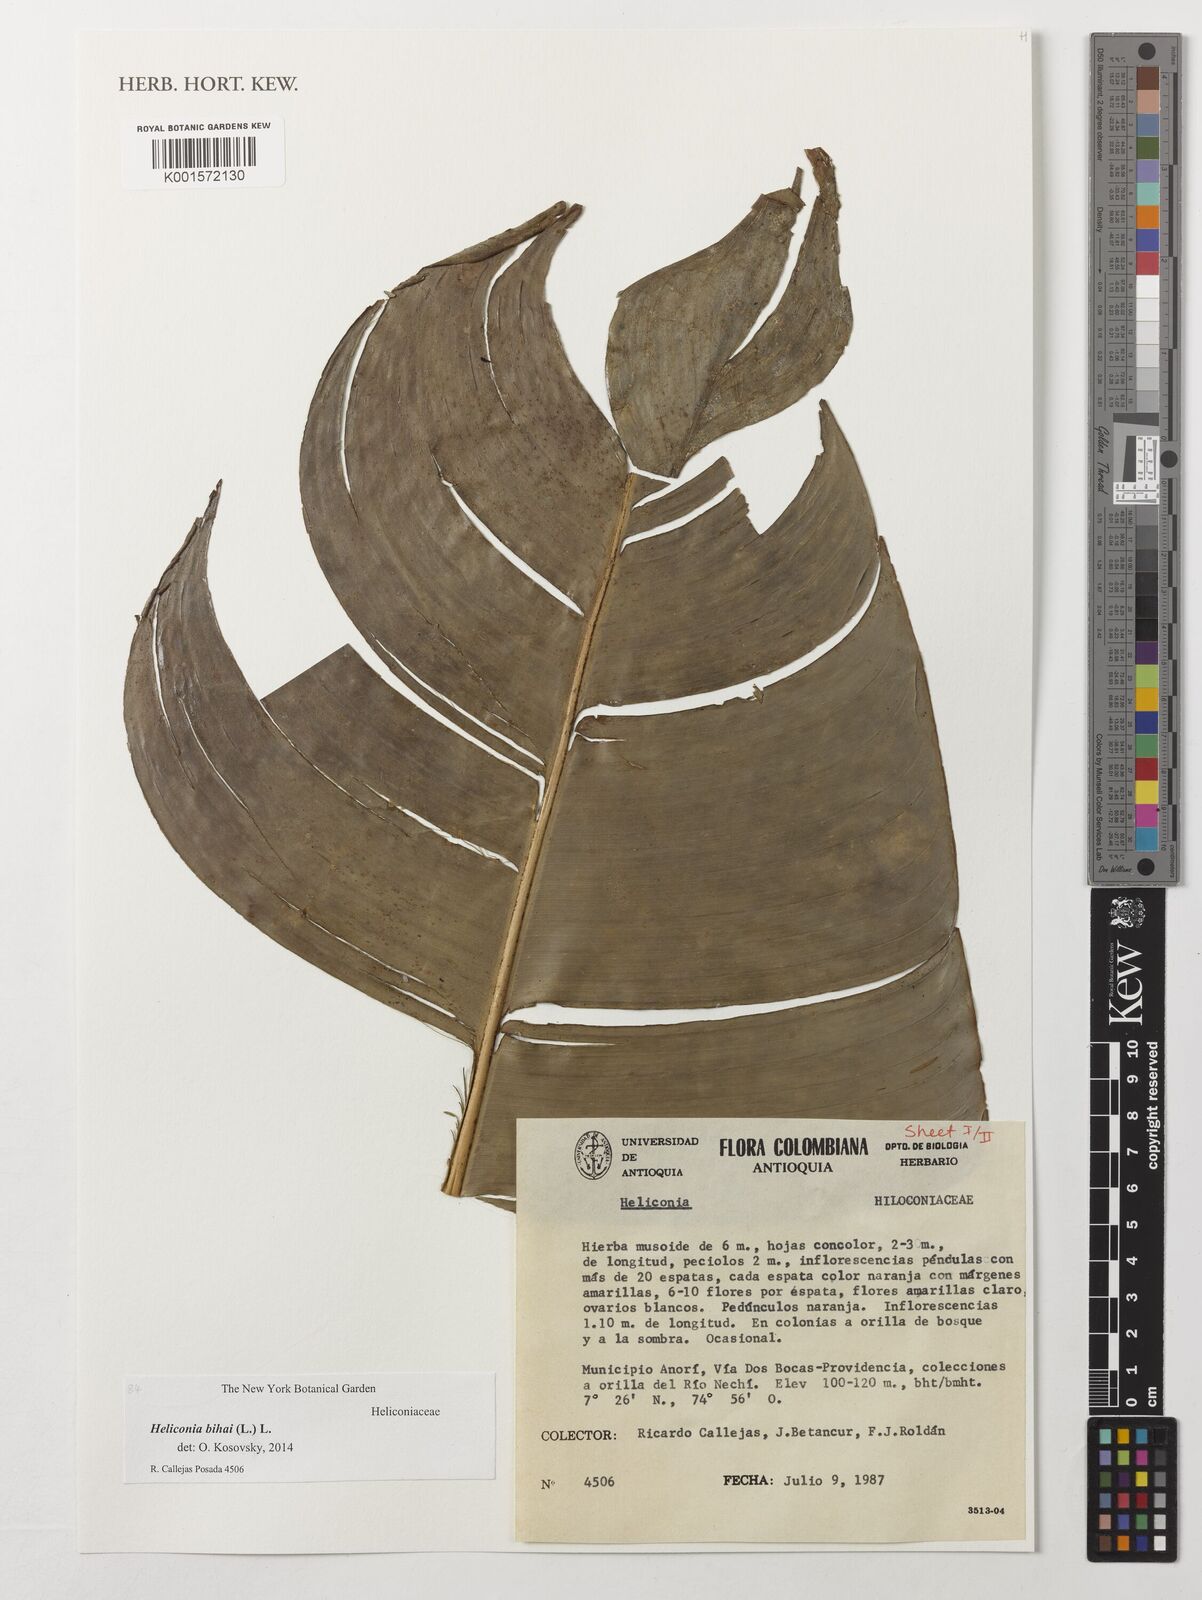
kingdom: Plantae
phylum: Tracheophyta
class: Liliopsida
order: Zingiberales
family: Heliconiaceae
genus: Heliconia
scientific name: Heliconia bihai
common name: Macaw flower
